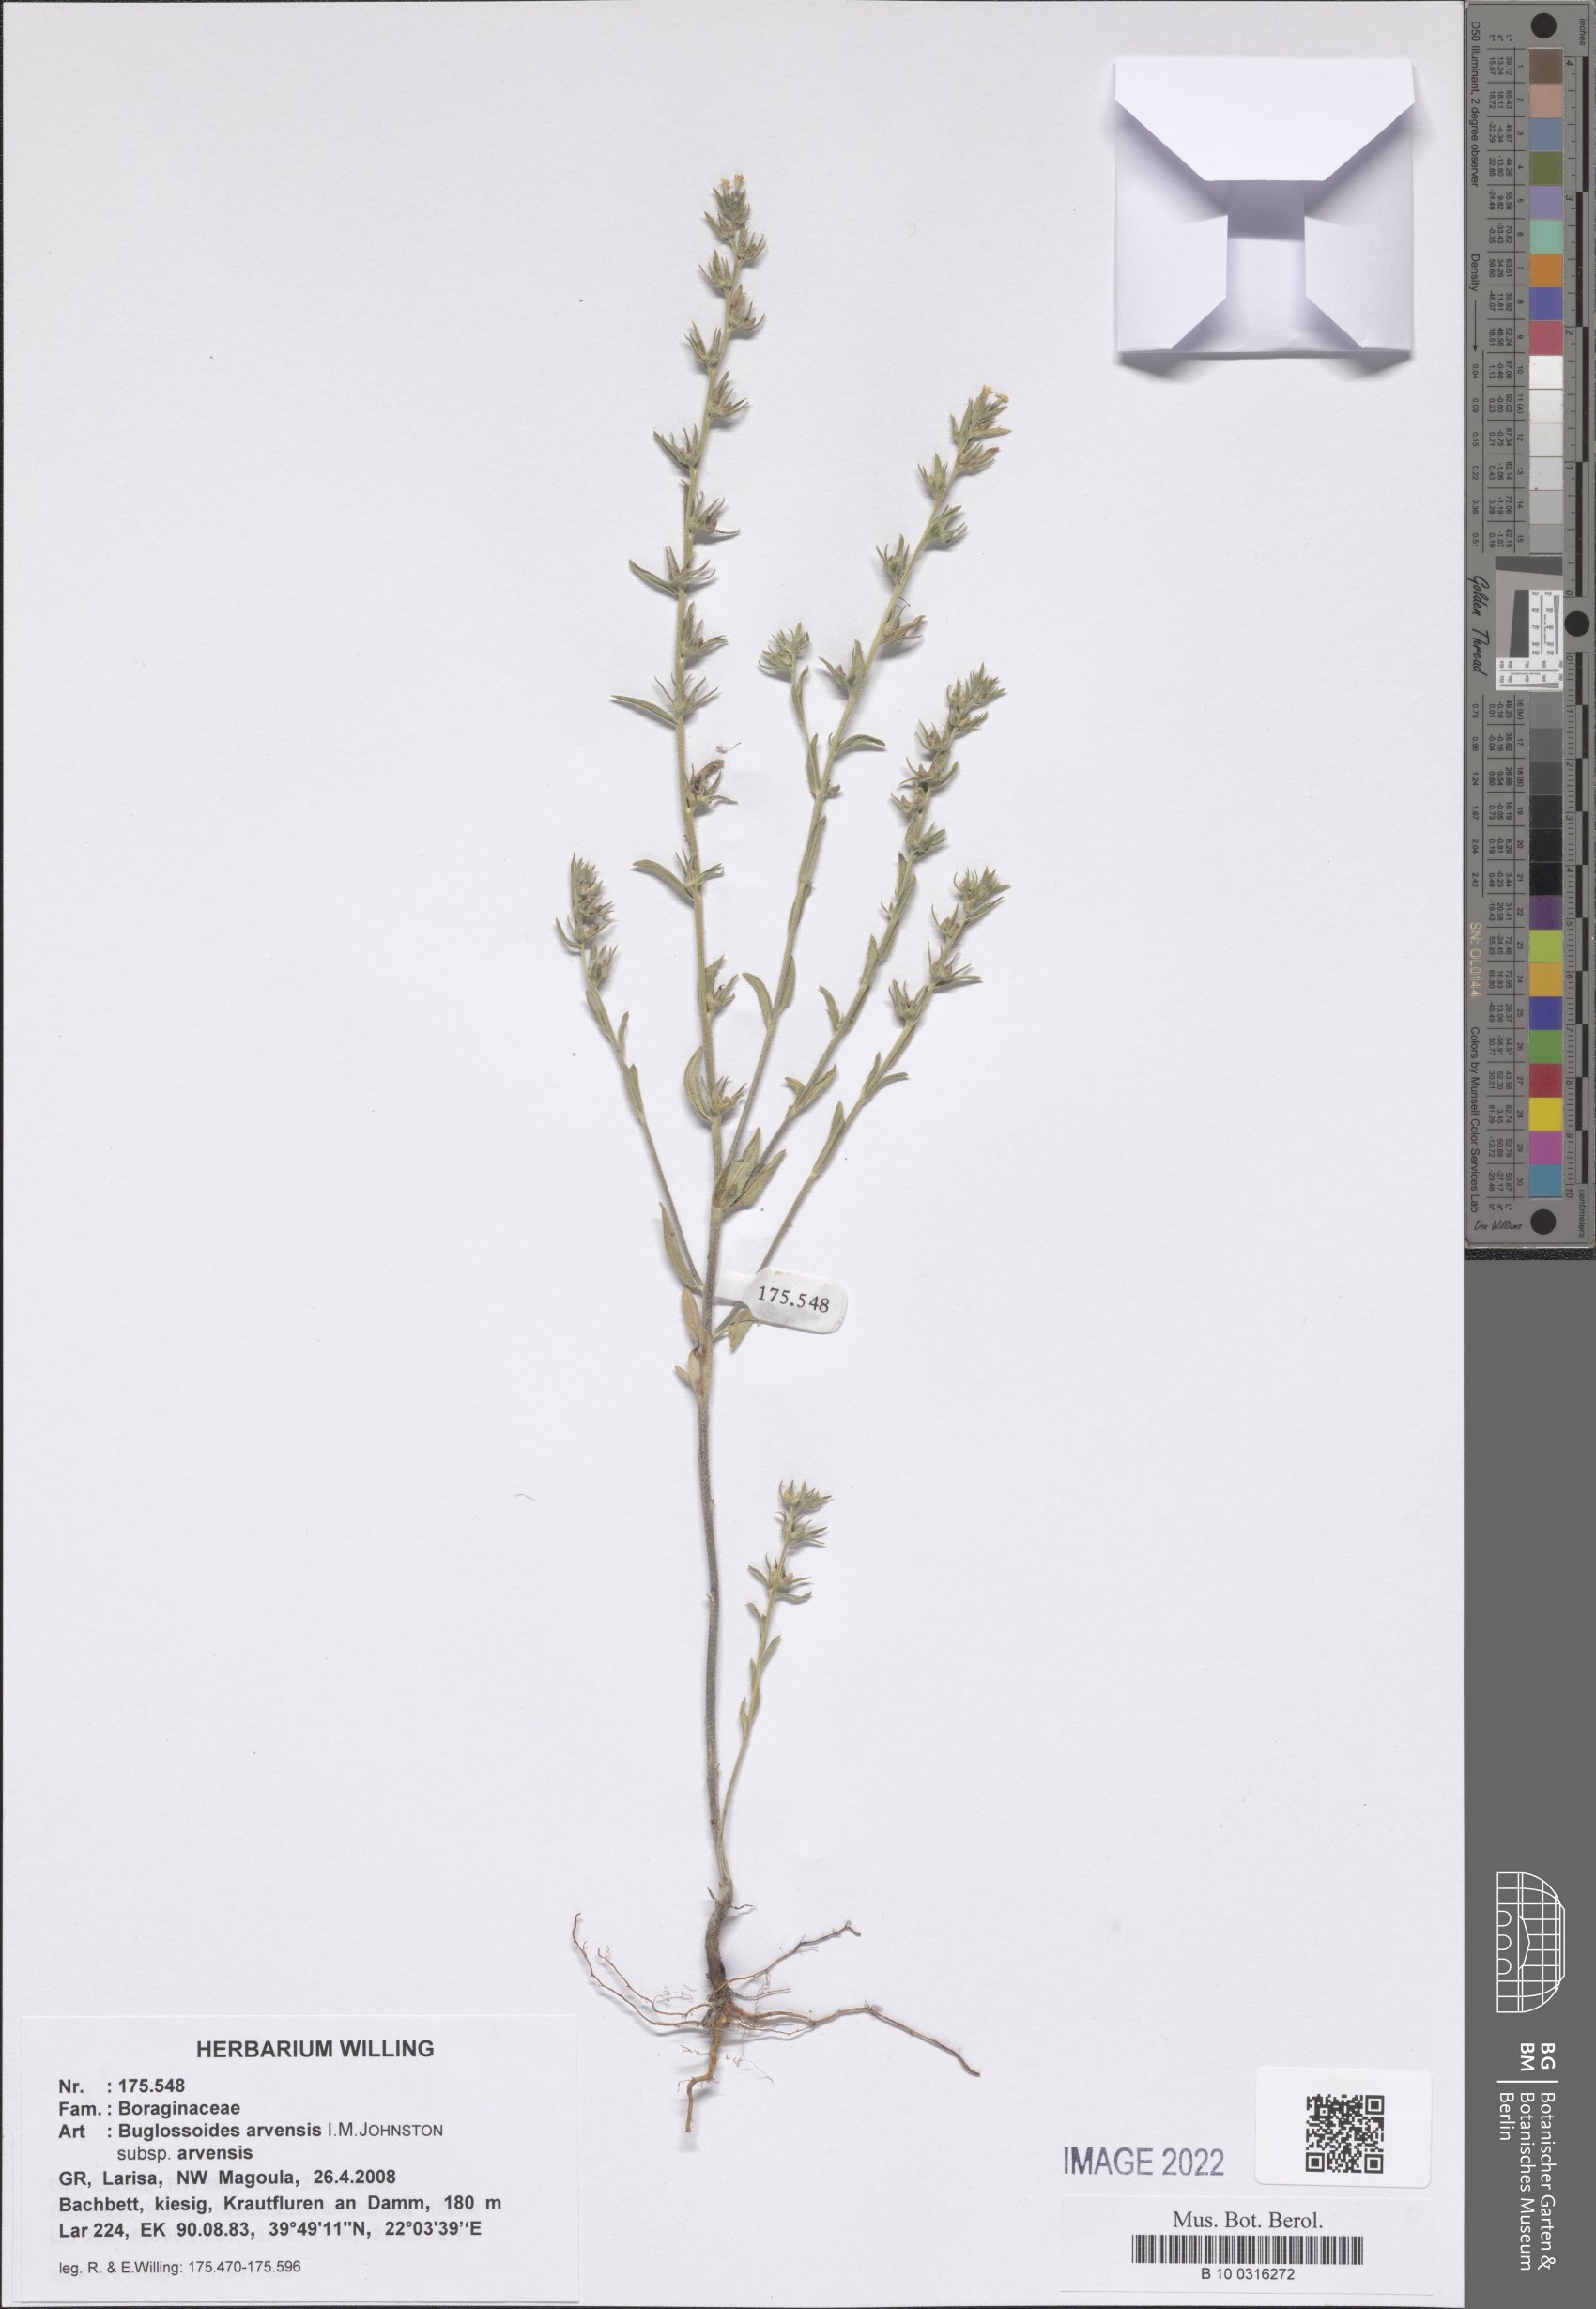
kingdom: Plantae
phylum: Tracheophyta
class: Magnoliopsida
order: Boraginales
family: Boraginaceae
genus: Buglossoides
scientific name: Buglossoides arvensis
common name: Corn gromwell
